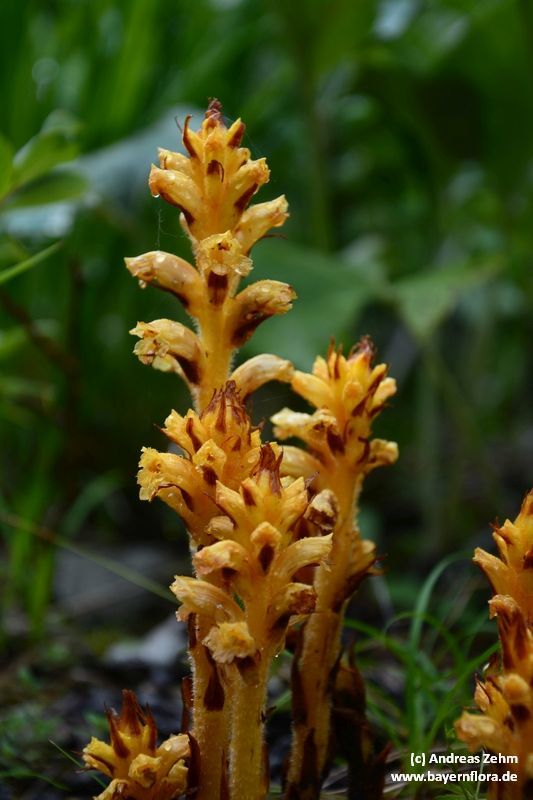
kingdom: Plantae
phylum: Tracheophyta
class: Magnoliopsida
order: Lamiales
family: Orobanchaceae
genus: Orobanche
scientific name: Orobanche flava
